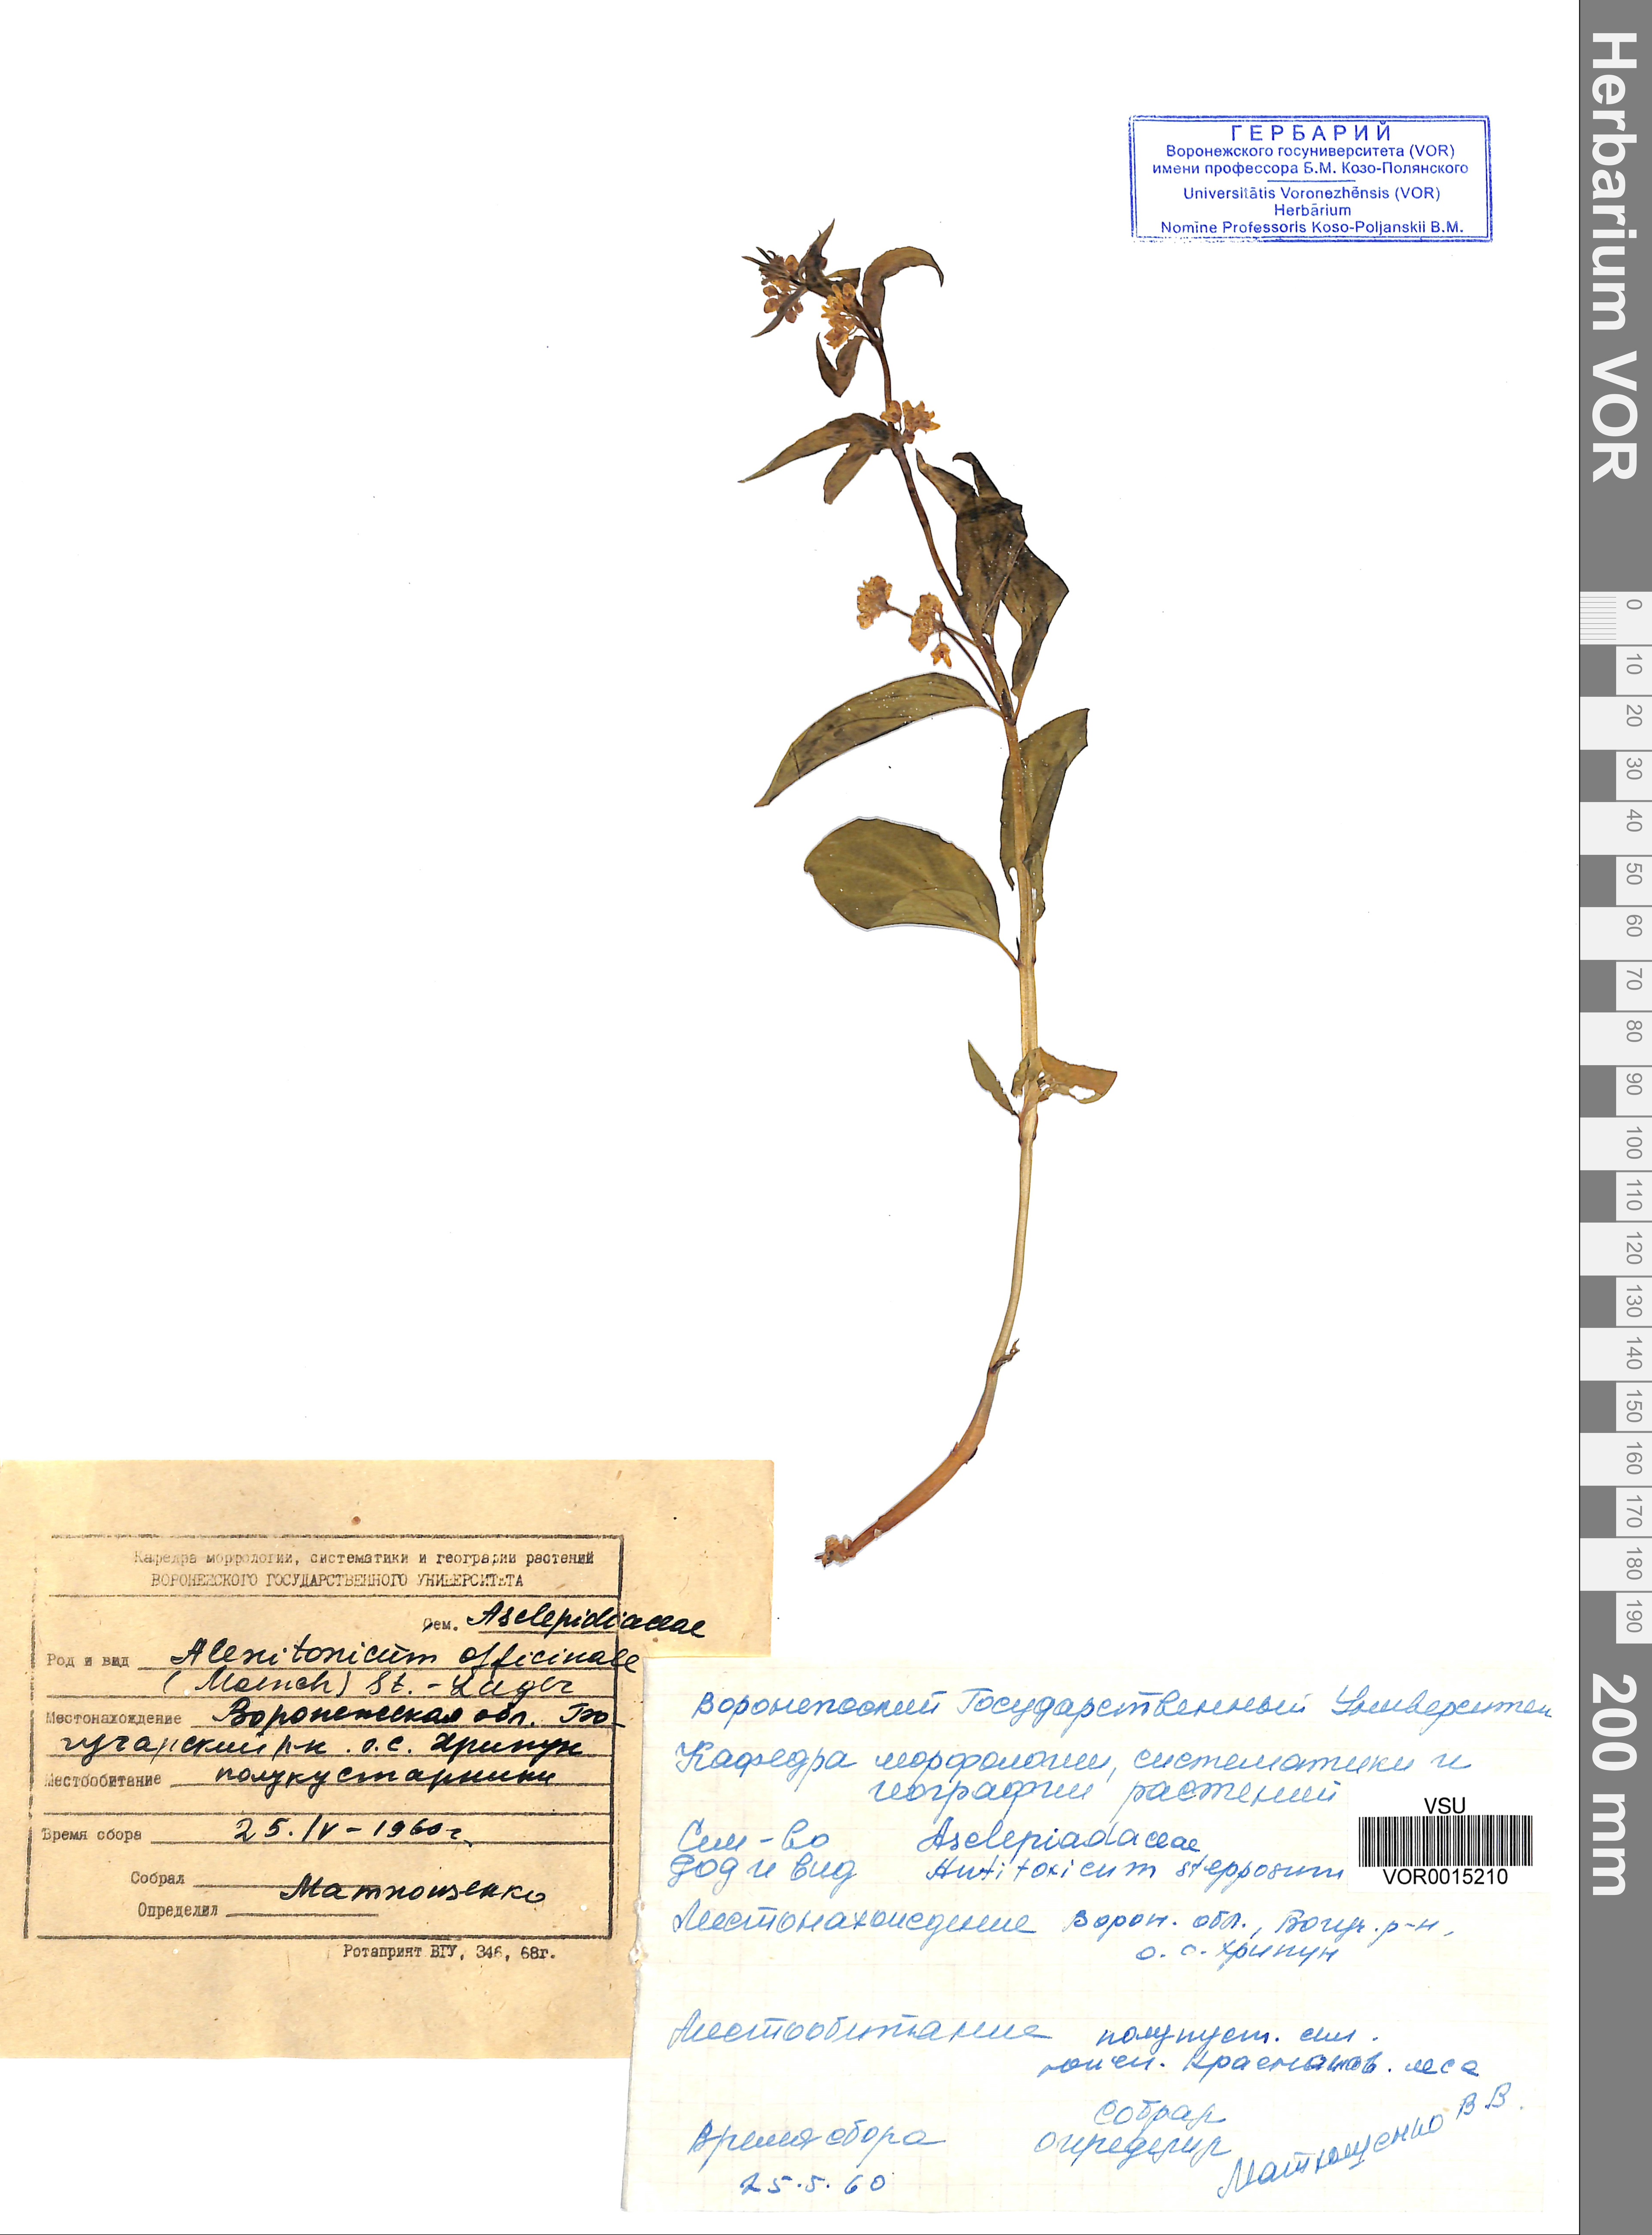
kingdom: Plantae
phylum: Tracheophyta
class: Magnoliopsida
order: Gentianales
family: Apocynaceae
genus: Vincetoxicum
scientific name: Vincetoxicum hirundinaria
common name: White swallowwort
